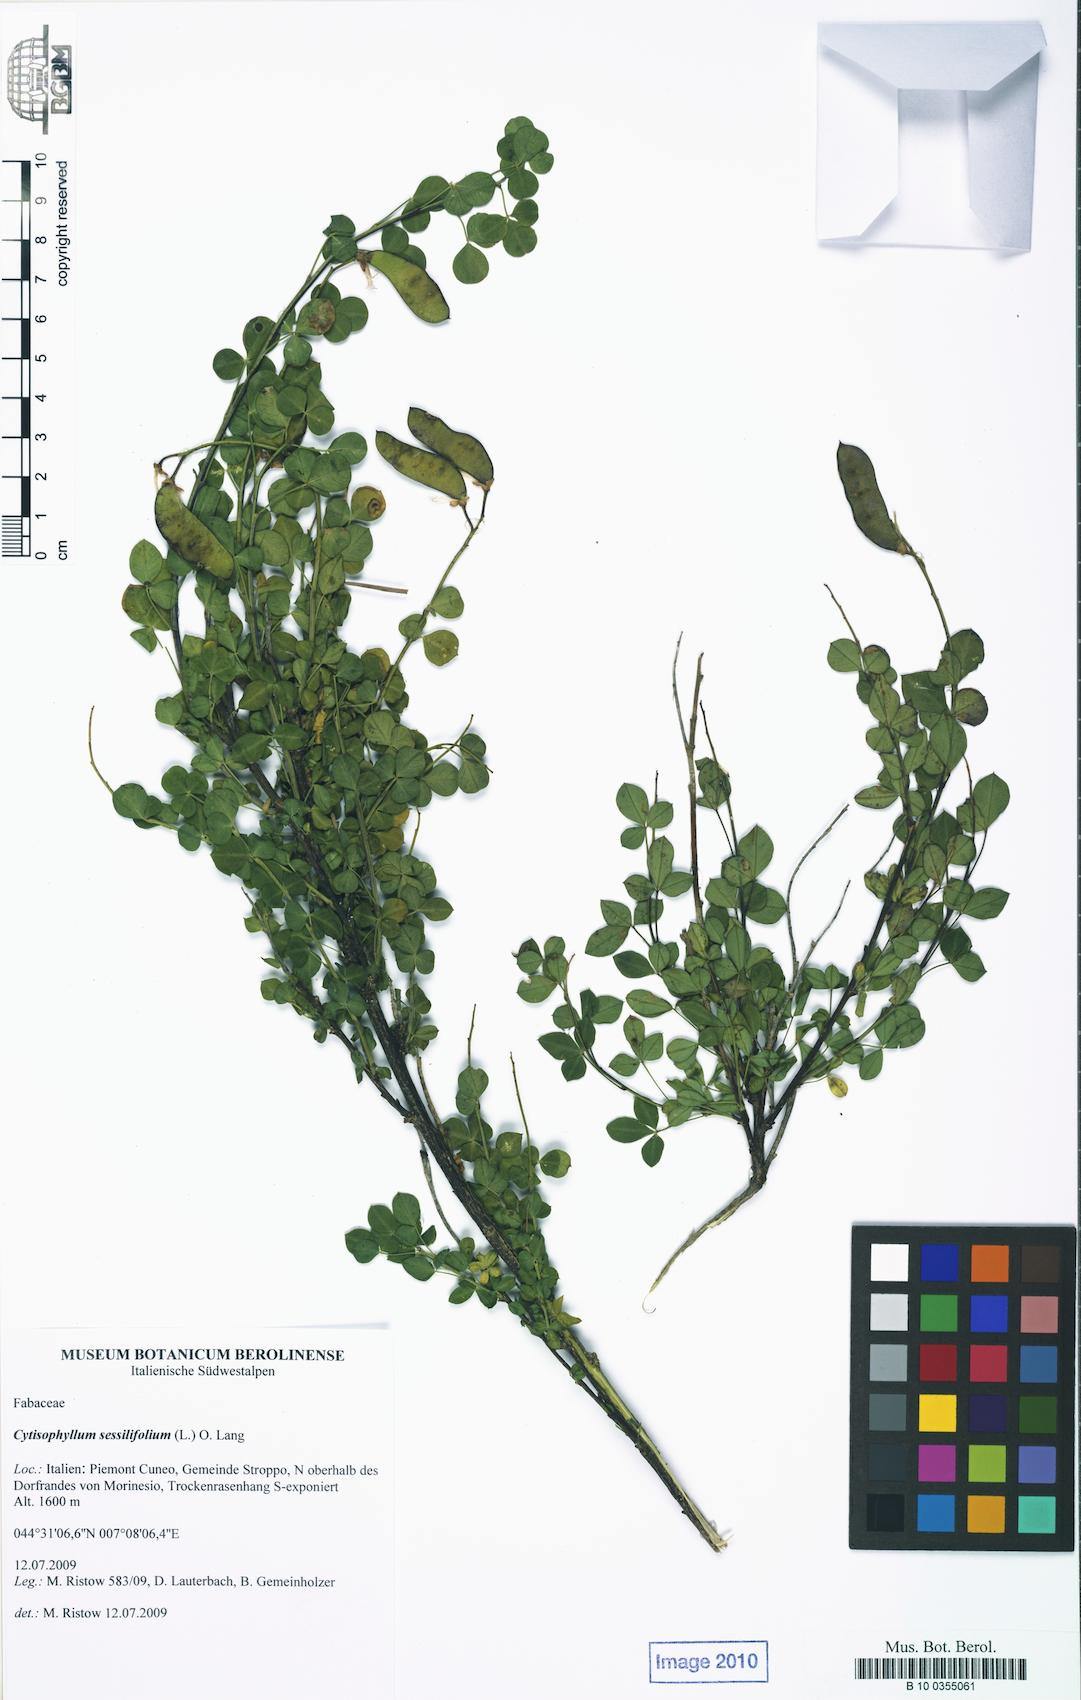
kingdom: Plantae
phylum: Tracheophyta
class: Magnoliopsida
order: Fabales
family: Fabaceae
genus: Cytisophyllum
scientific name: Cytisophyllum sessilifolium
